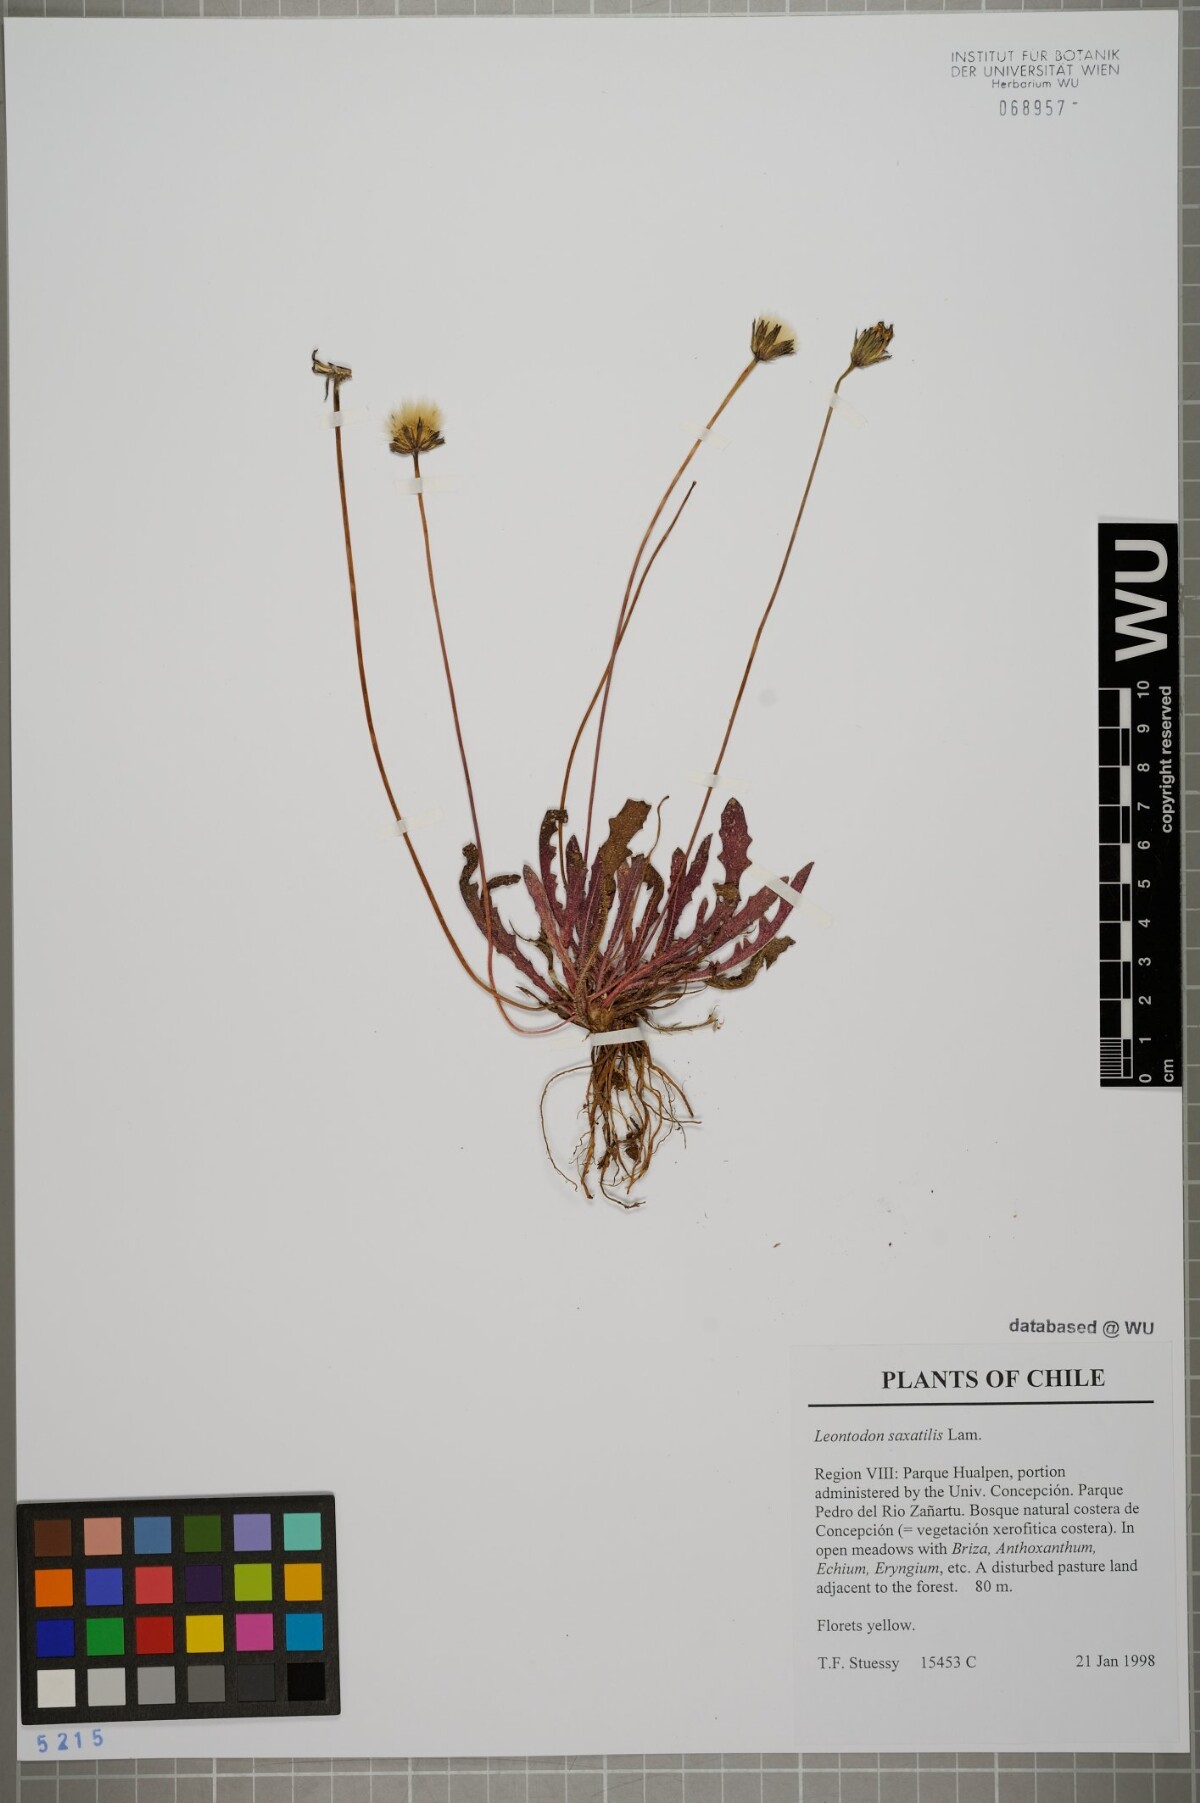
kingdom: Plantae
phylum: Tracheophyta
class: Magnoliopsida
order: Asterales
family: Asteraceae
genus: Thrincia
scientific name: Thrincia saxatilis
